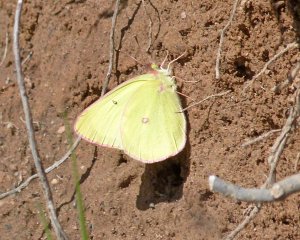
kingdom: Animalia
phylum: Arthropoda
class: Insecta
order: Lepidoptera
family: Pieridae
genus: Colias
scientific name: Colias interior
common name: Pink-edged Sulphur
